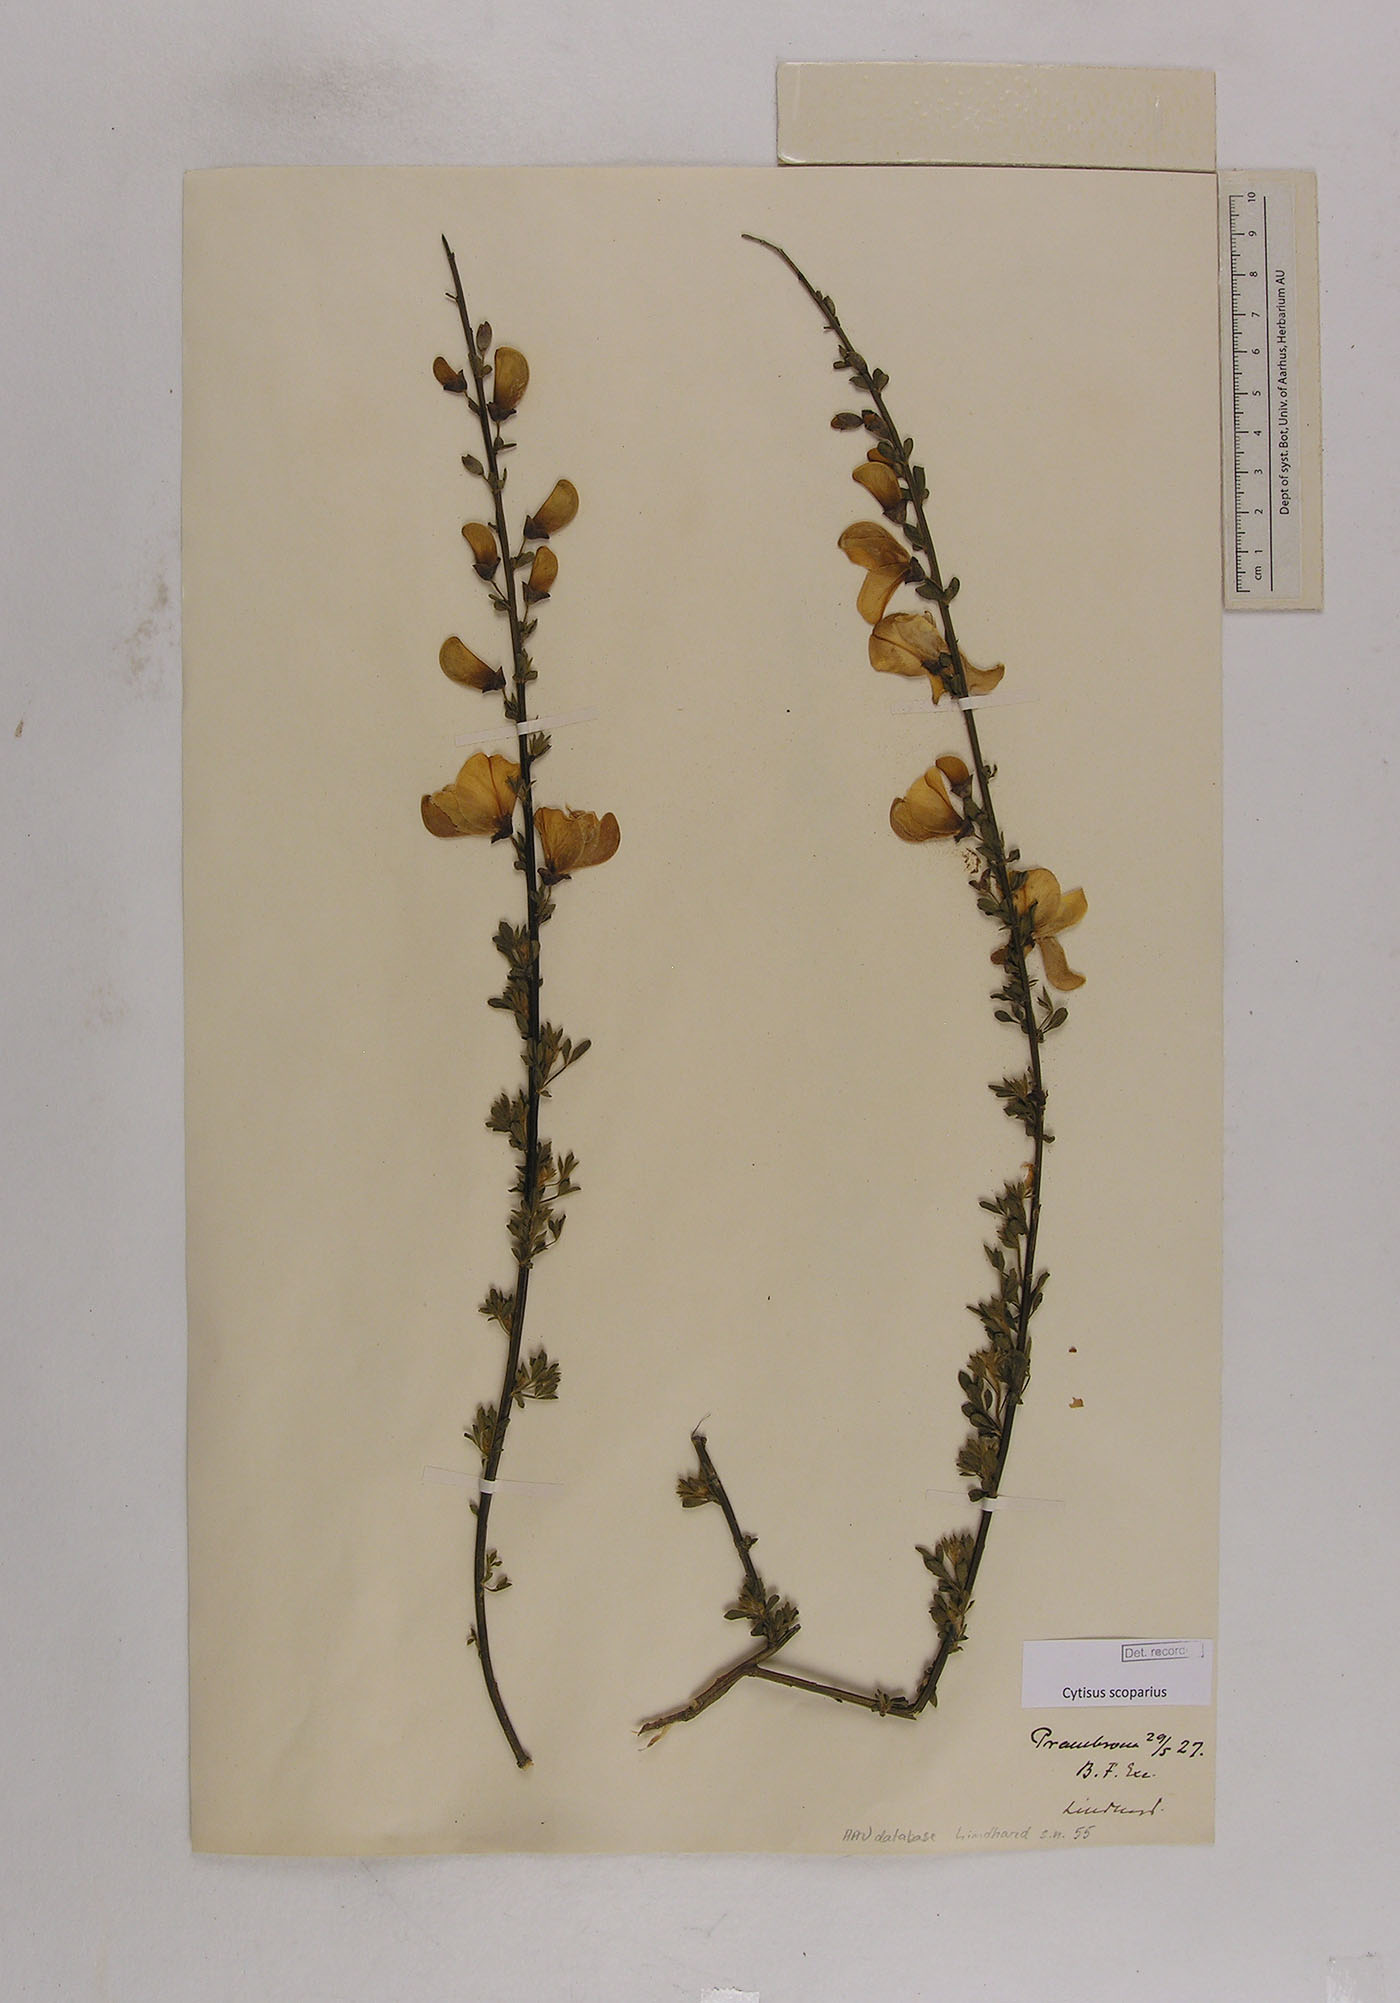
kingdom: Plantae
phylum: Tracheophyta
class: Magnoliopsida
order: Fabales
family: Fabaceae
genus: Cytisus
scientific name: Cytisus scoparius
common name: Scotch broom
